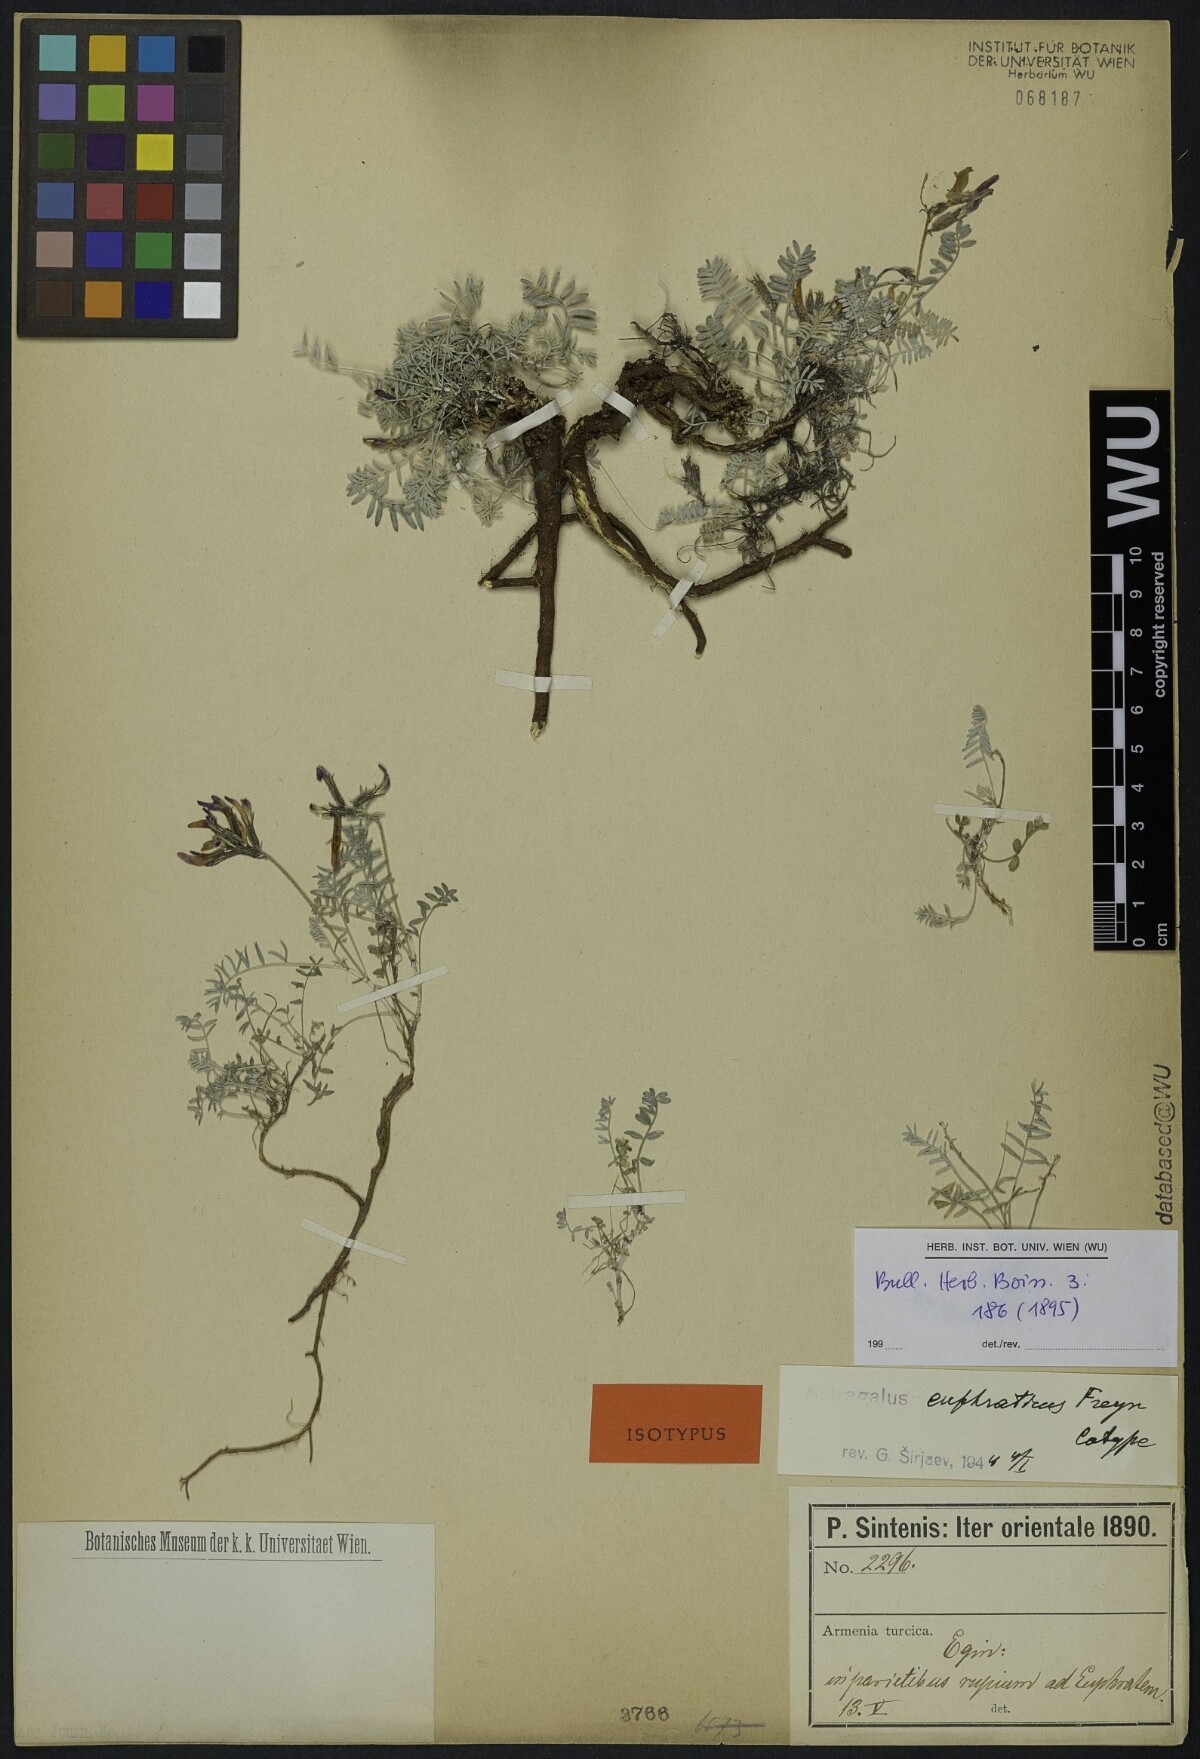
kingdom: Plantae
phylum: Tracheophyta
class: Magnoliopsida
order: Fabales
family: Fabaceae
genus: Astragalus
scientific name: Astragalus cadmicus
